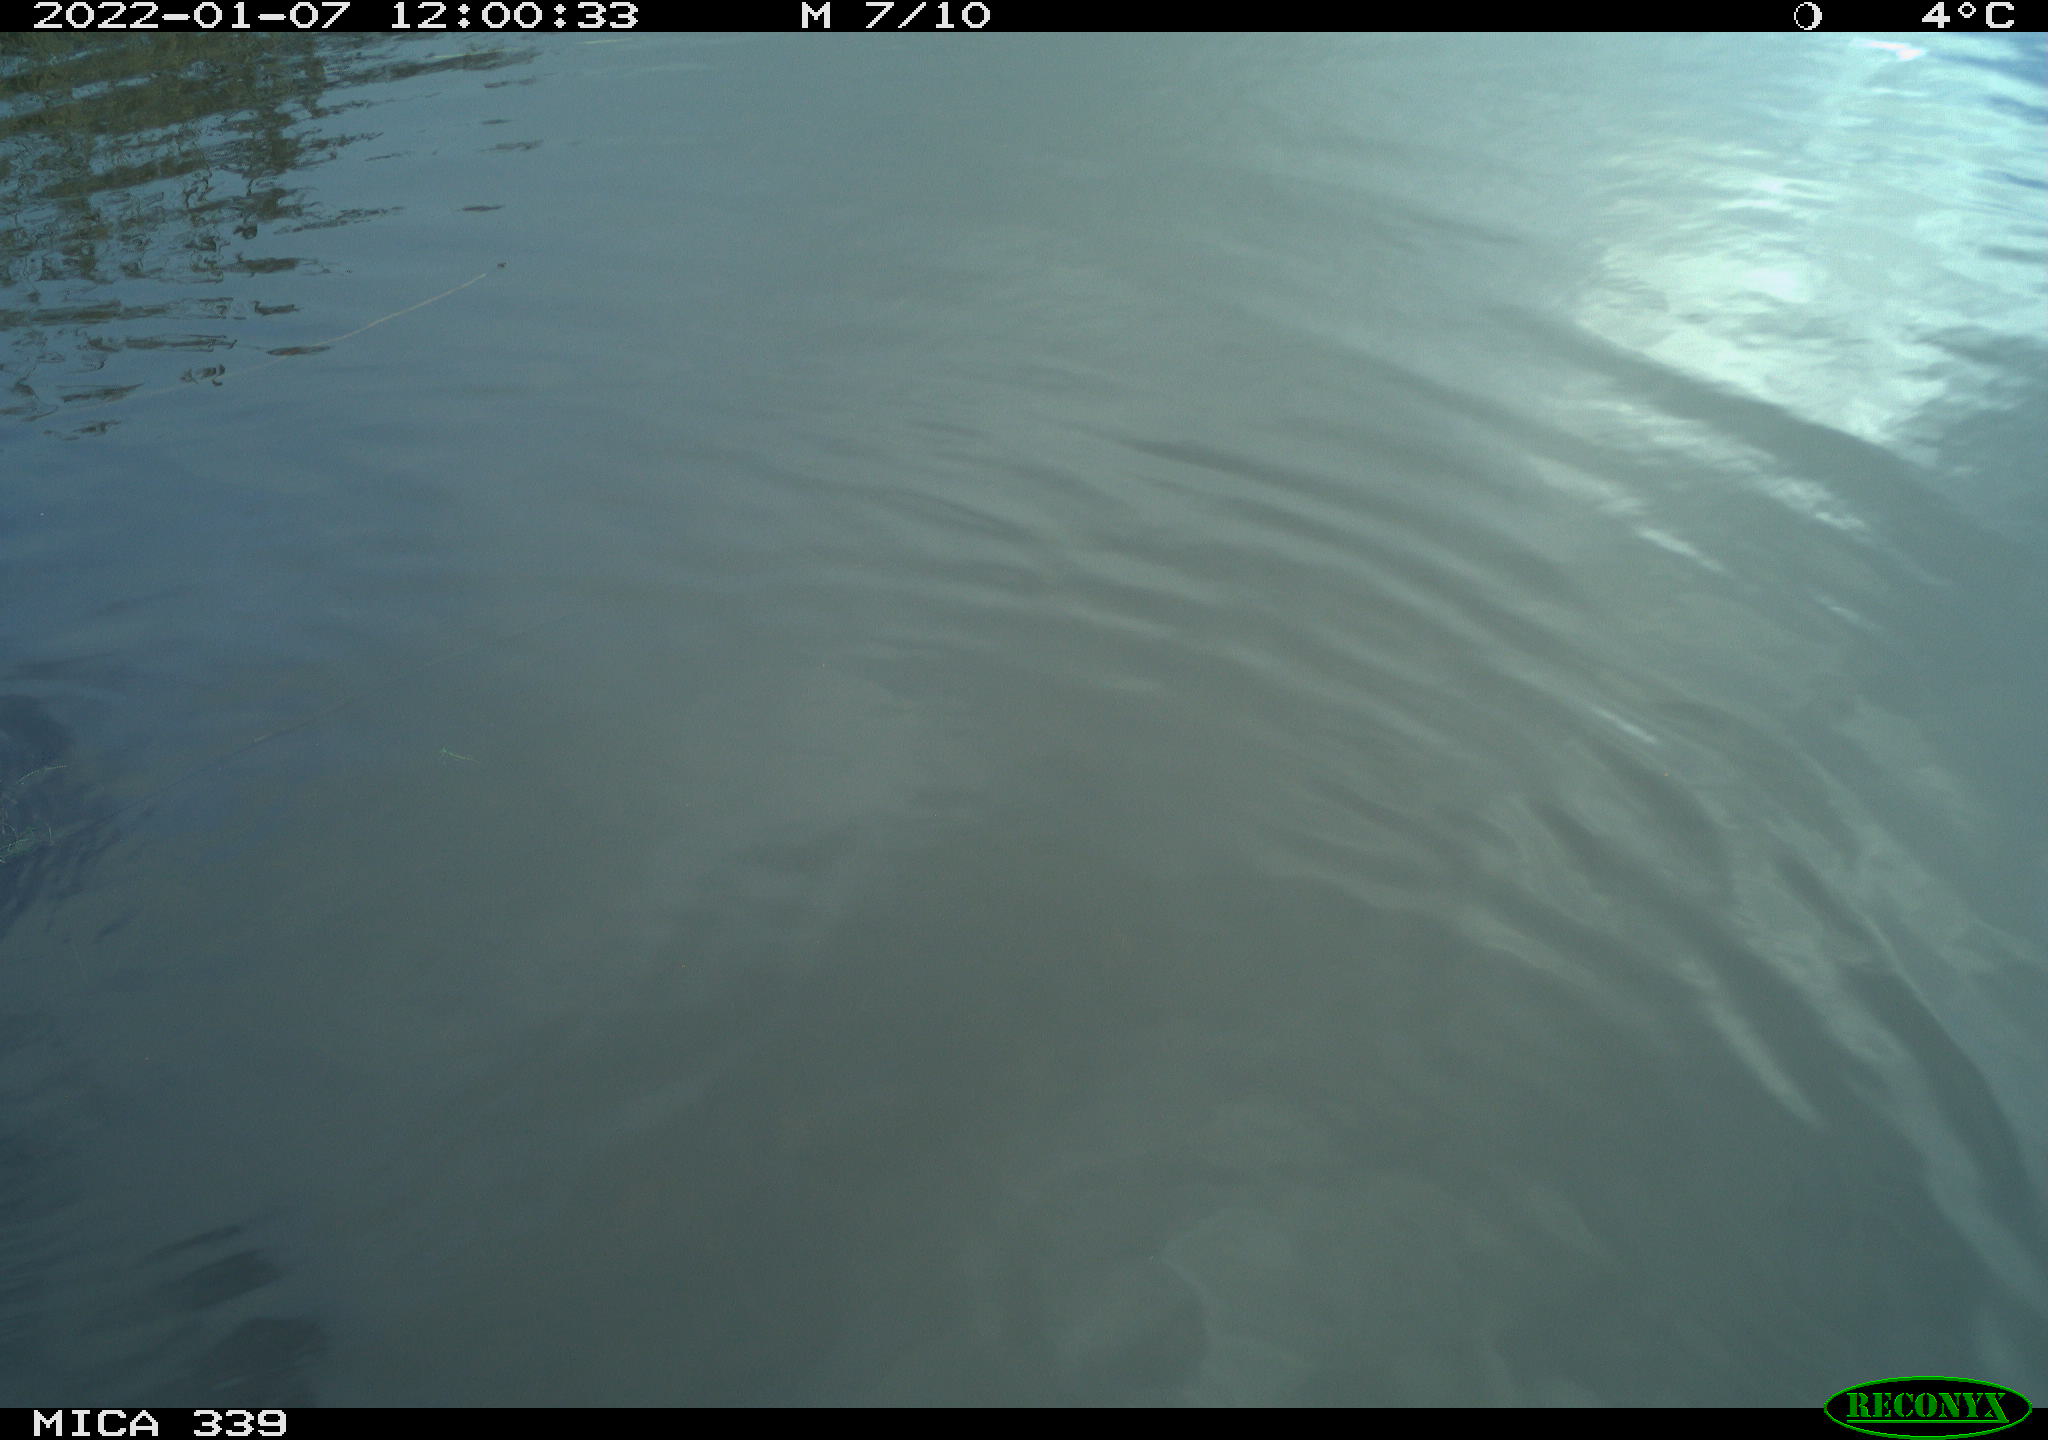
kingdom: Animalia
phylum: Chordata
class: Aves
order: Anseriformes
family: Anatidae
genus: Anas
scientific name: Anas platyrhynchos
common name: Mallard
